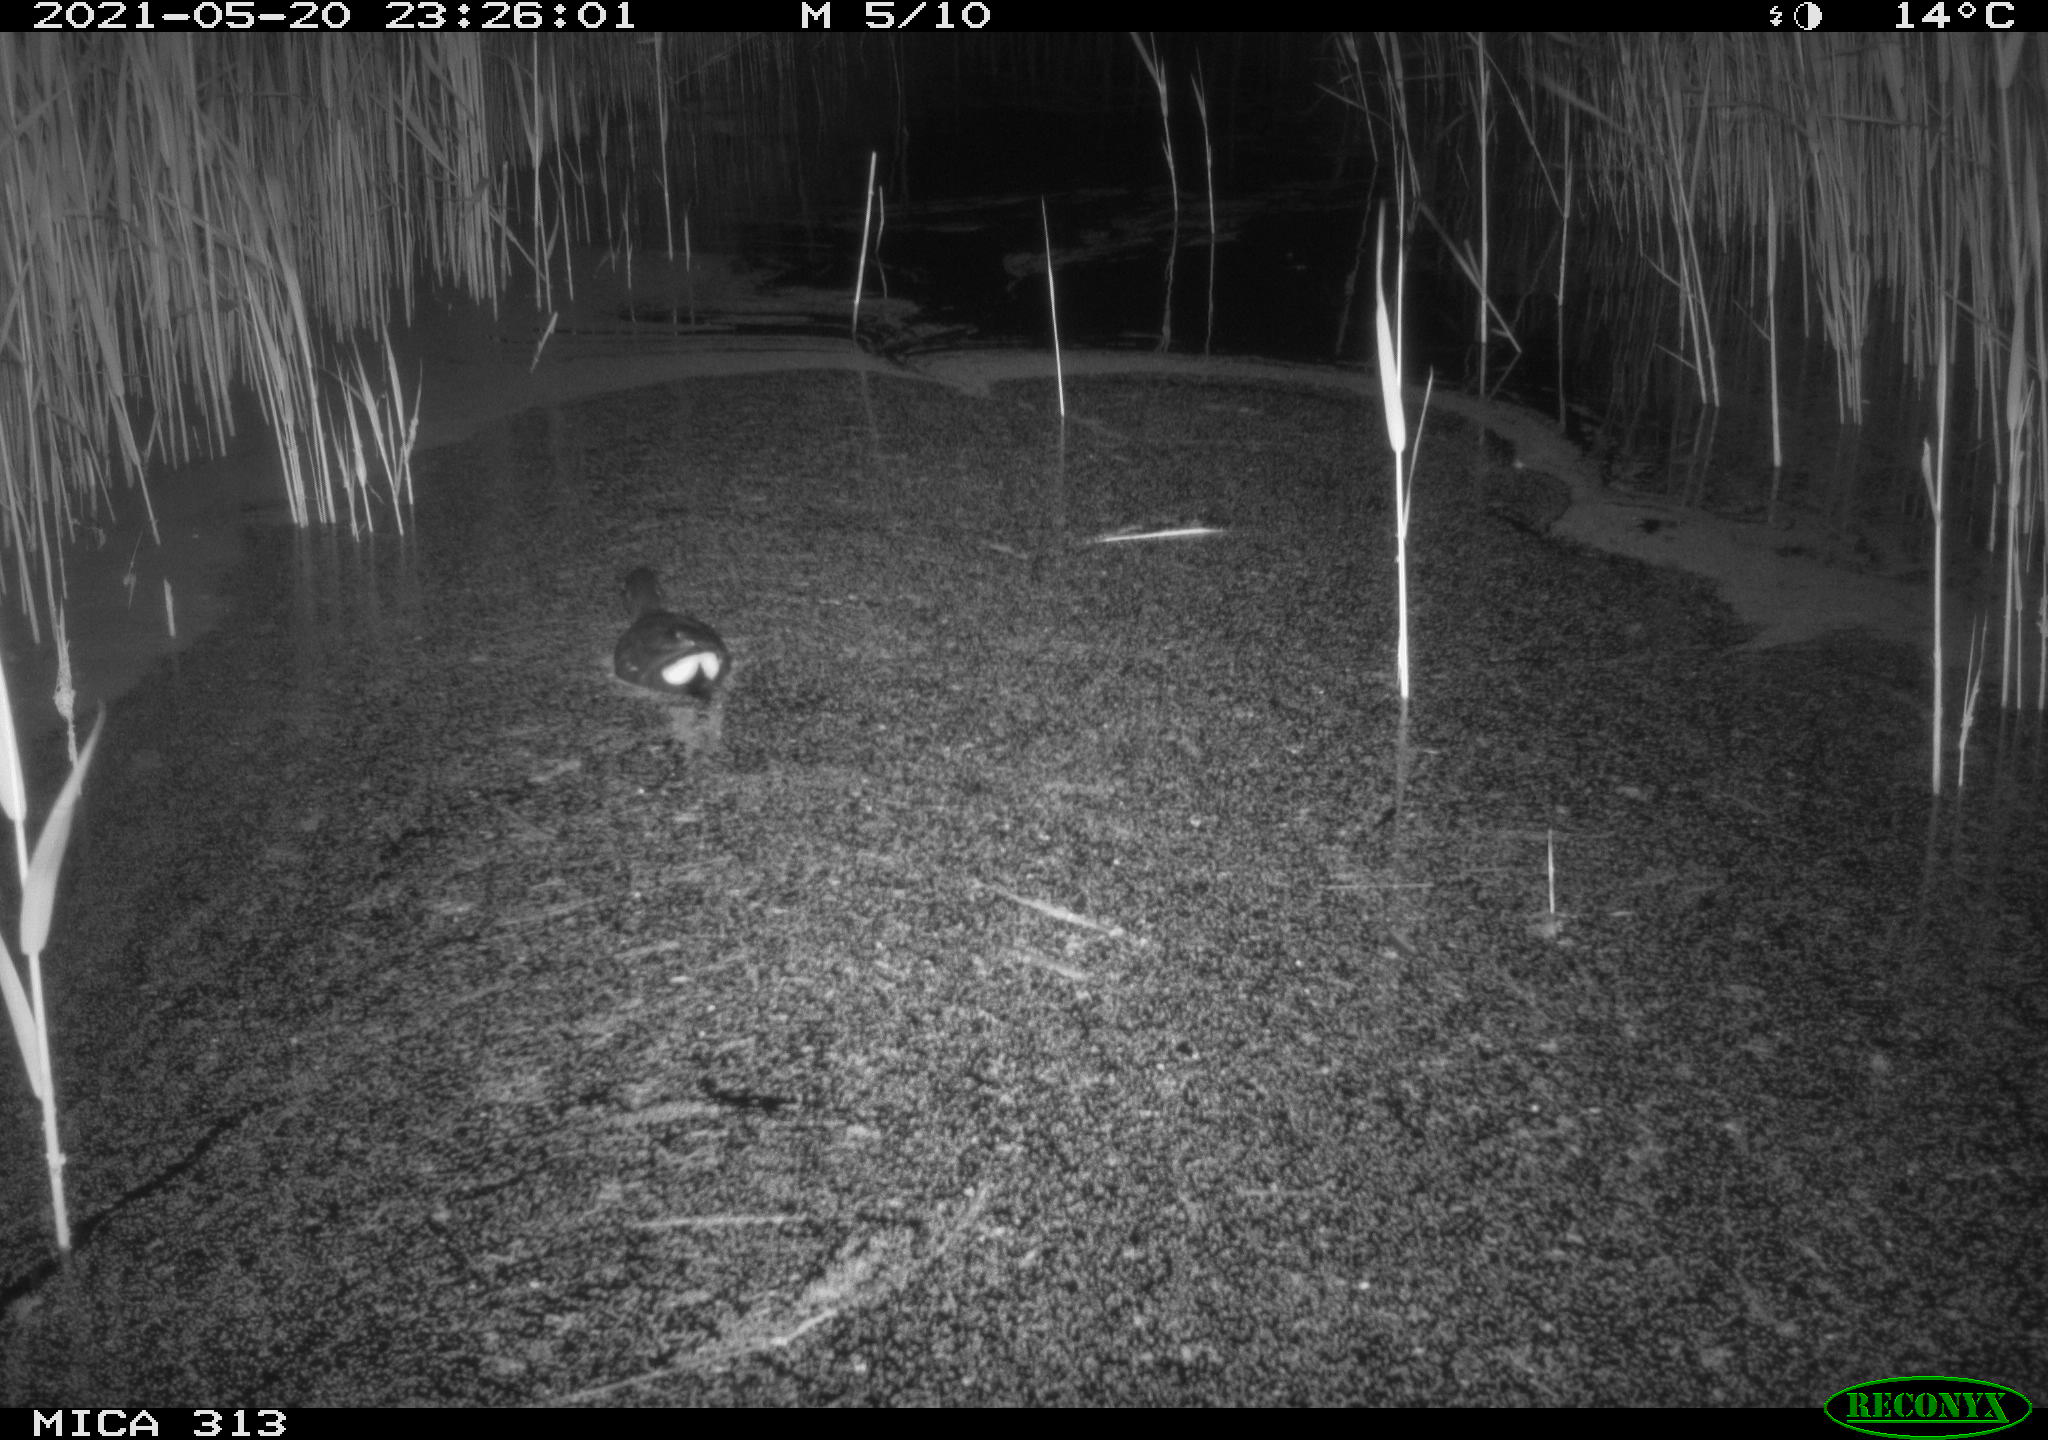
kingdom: Animalia
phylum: Chordata
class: Aves
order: Gruiformes
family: Rallidae
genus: Gallinula
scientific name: Gallinula chloropus
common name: Common moorhen
